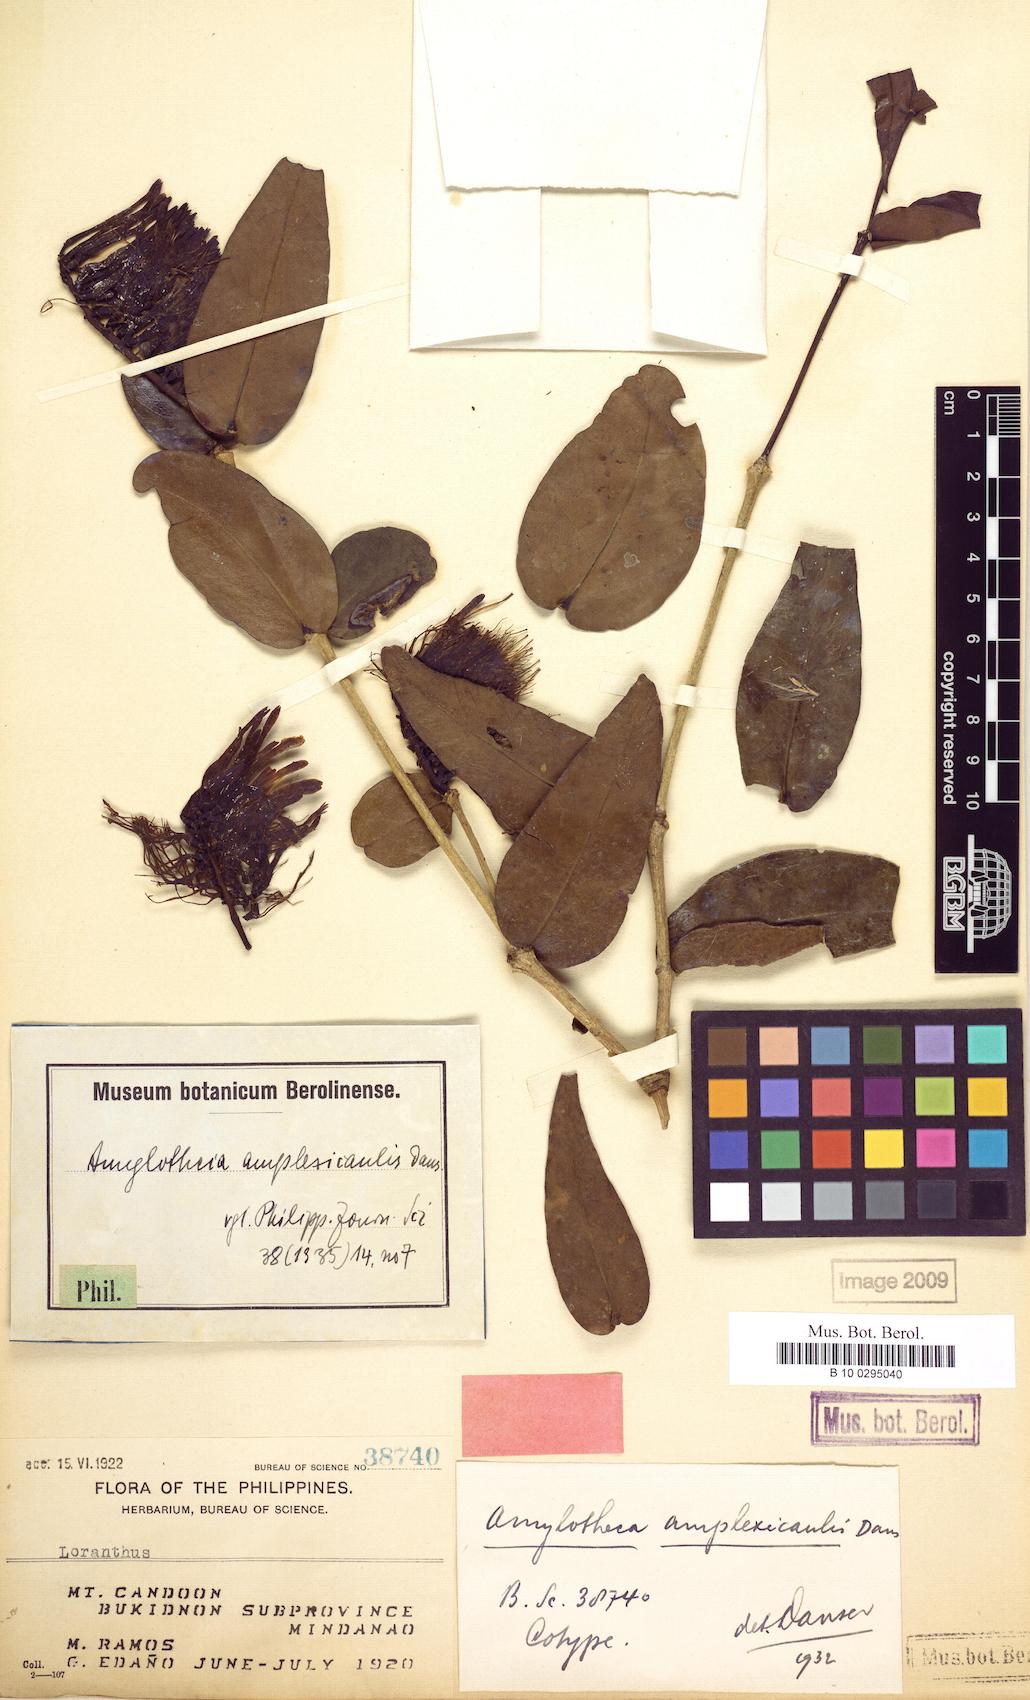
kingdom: Plantae
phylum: Tracheophyta
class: Magnoliopsida
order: Santalales
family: Loranthaceae
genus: Decaisnina
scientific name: Decaisnina amplexicaulis
